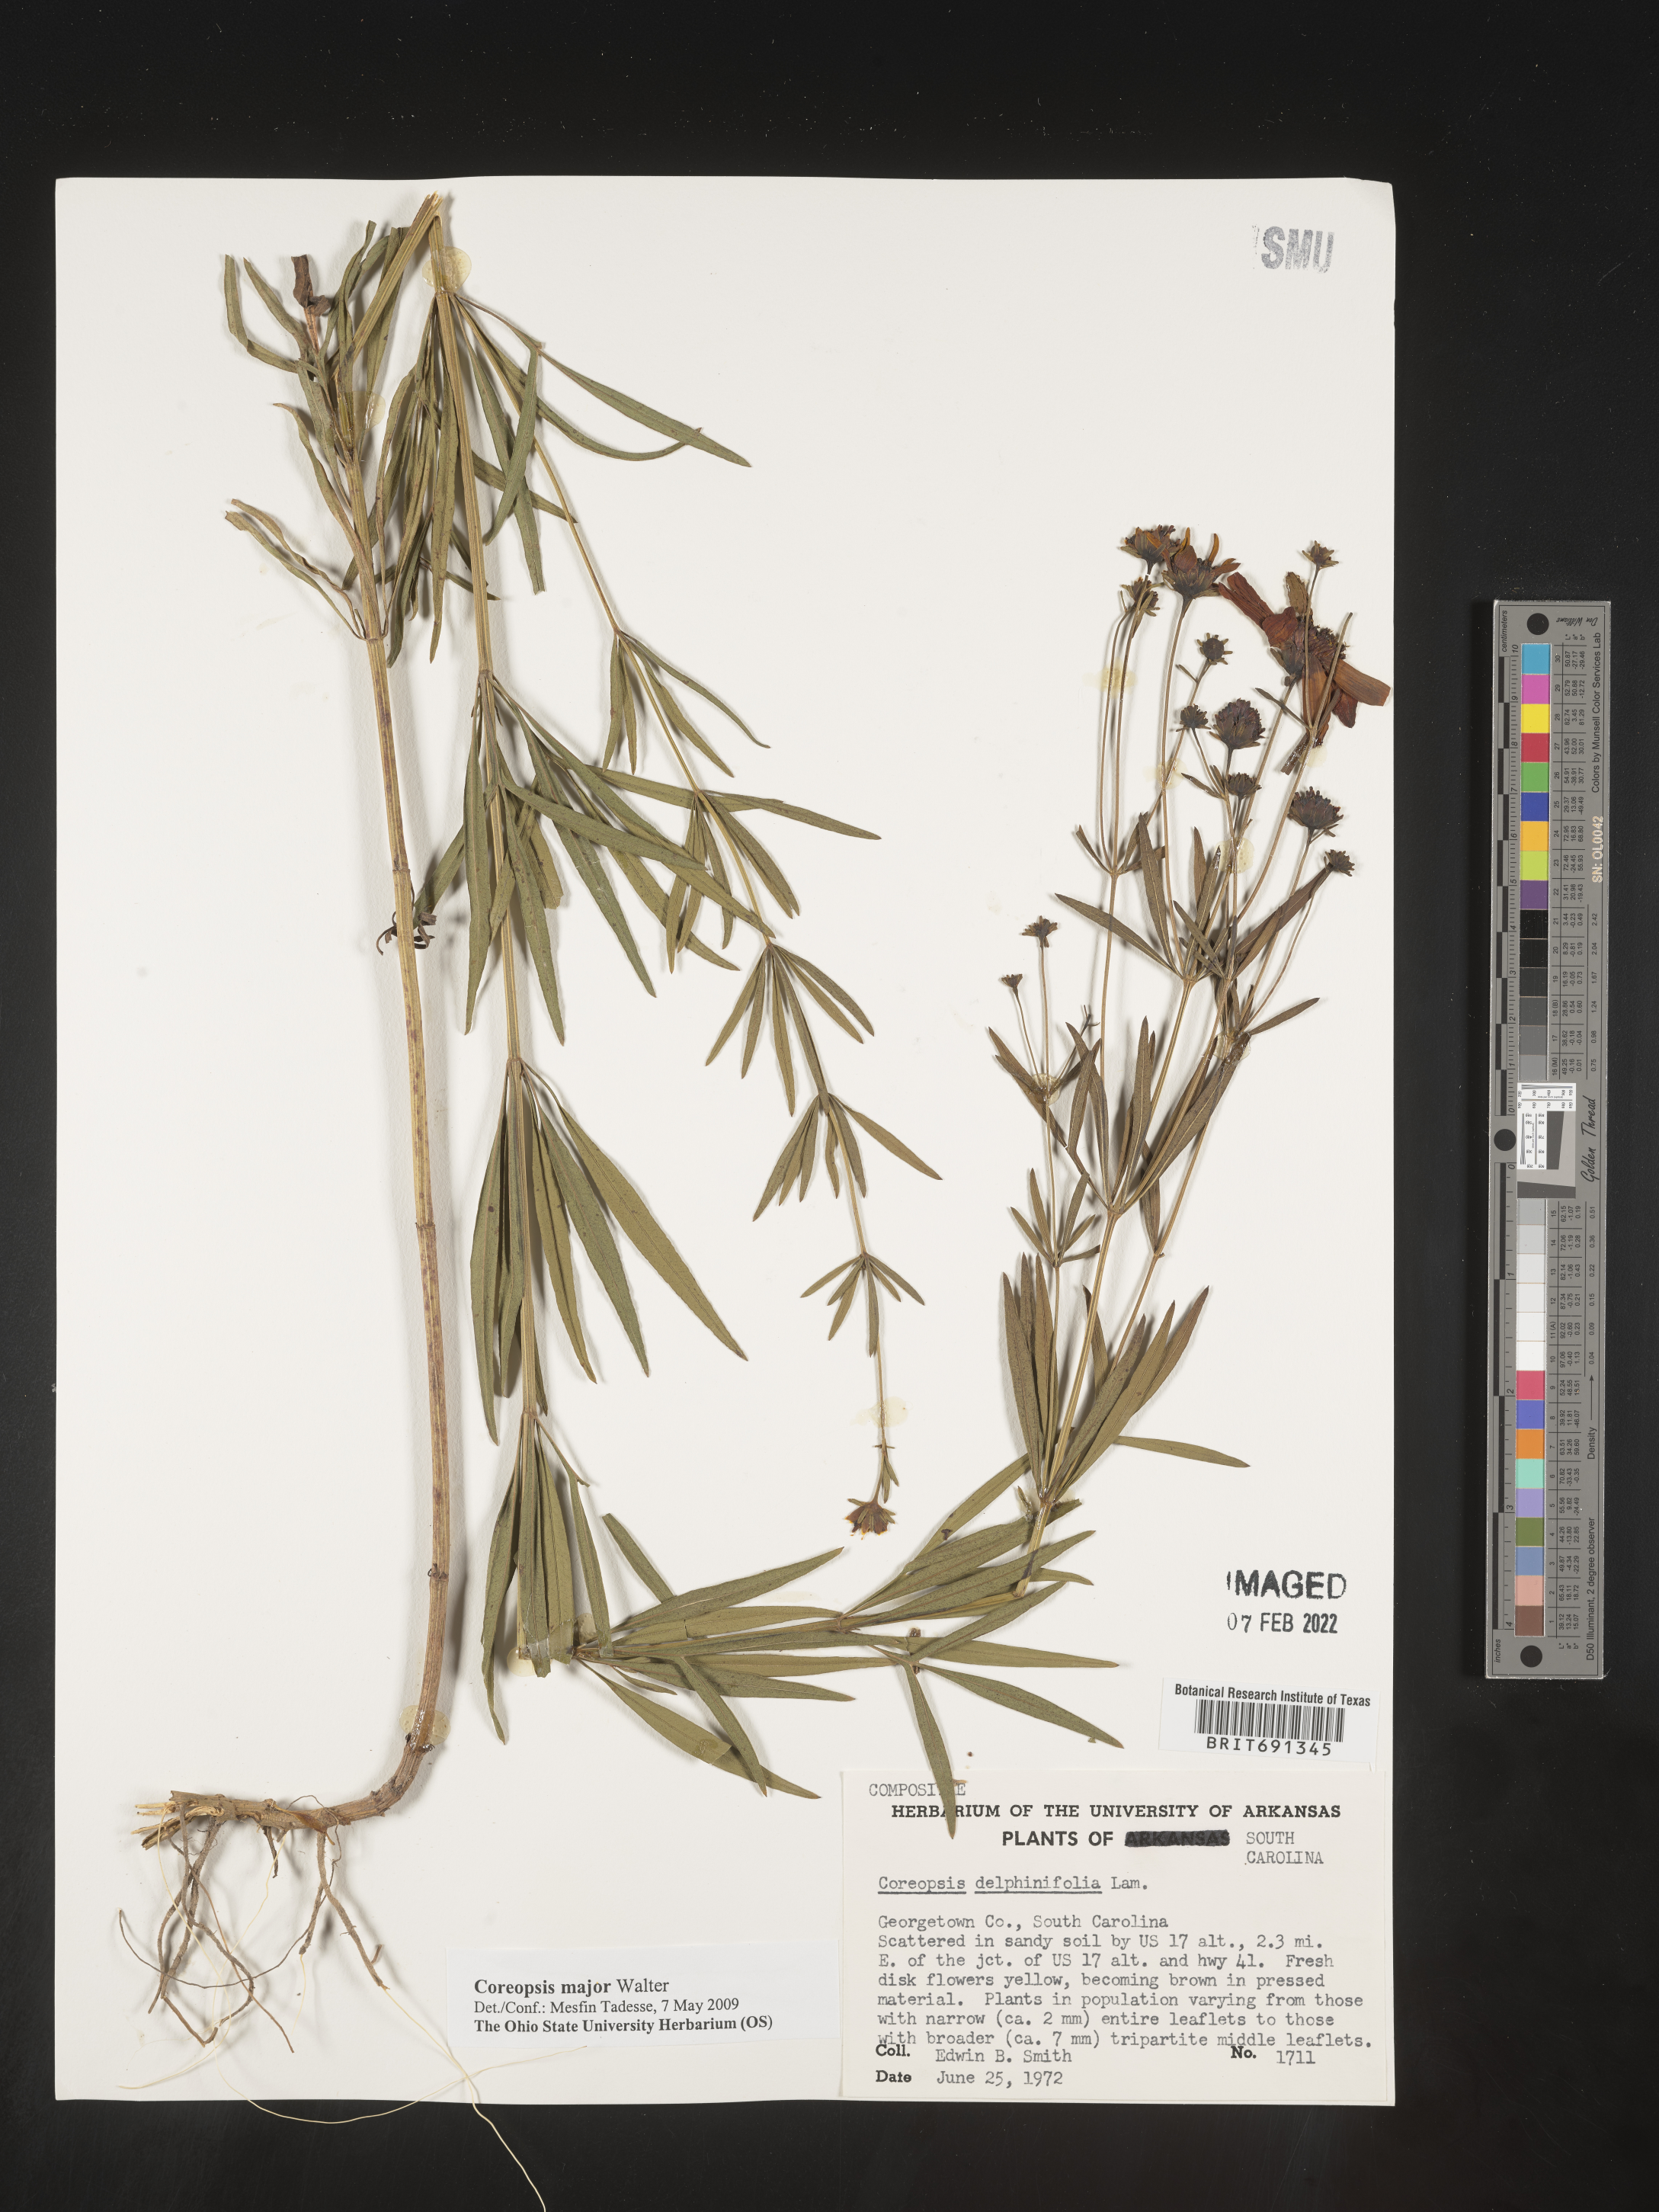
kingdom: Plantae
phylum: Tracheophyta
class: Magnoliopsida
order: Asterales
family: Asteraceae
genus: Coreopsis
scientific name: Coreopsis major
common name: Forest tickseed
